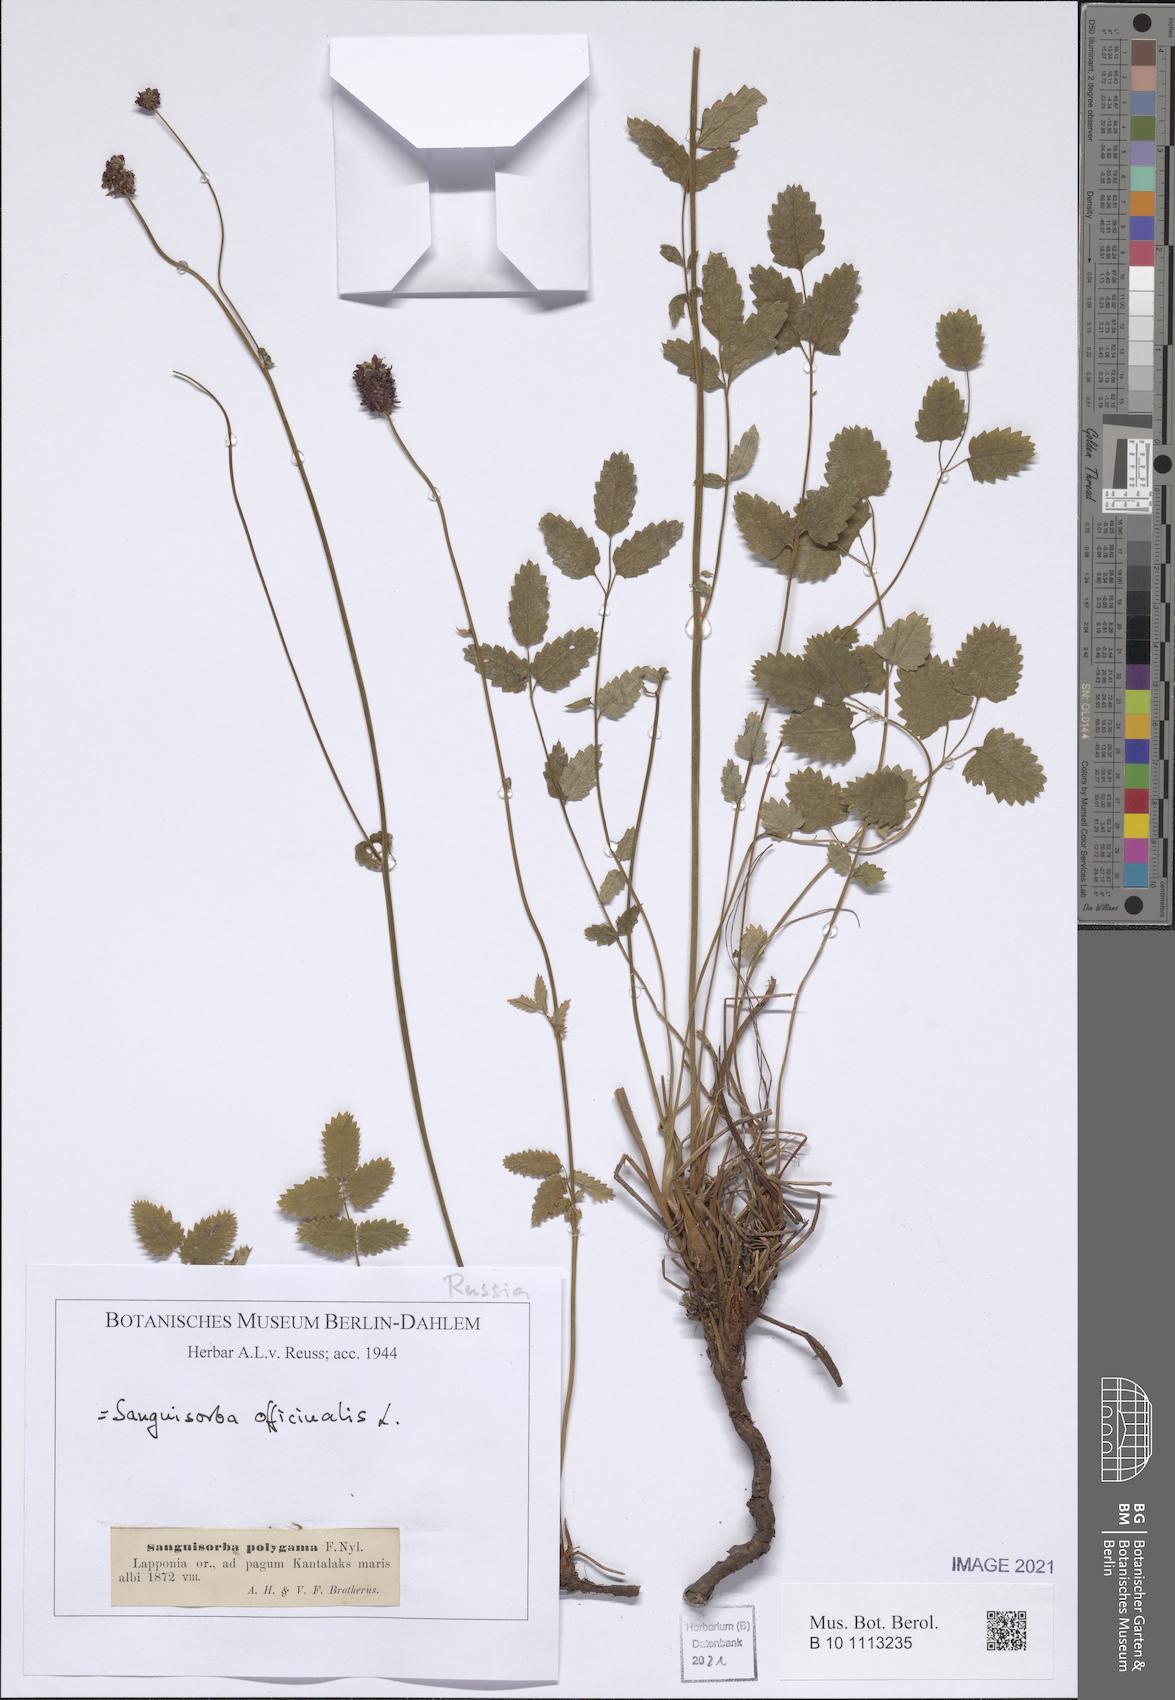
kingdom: Plantae
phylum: Tracheophyta
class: Magnoliopsida
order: Rosales
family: Rosaceae
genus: Sanguisorba
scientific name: Sanguisorba officinalis
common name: Great burnet
